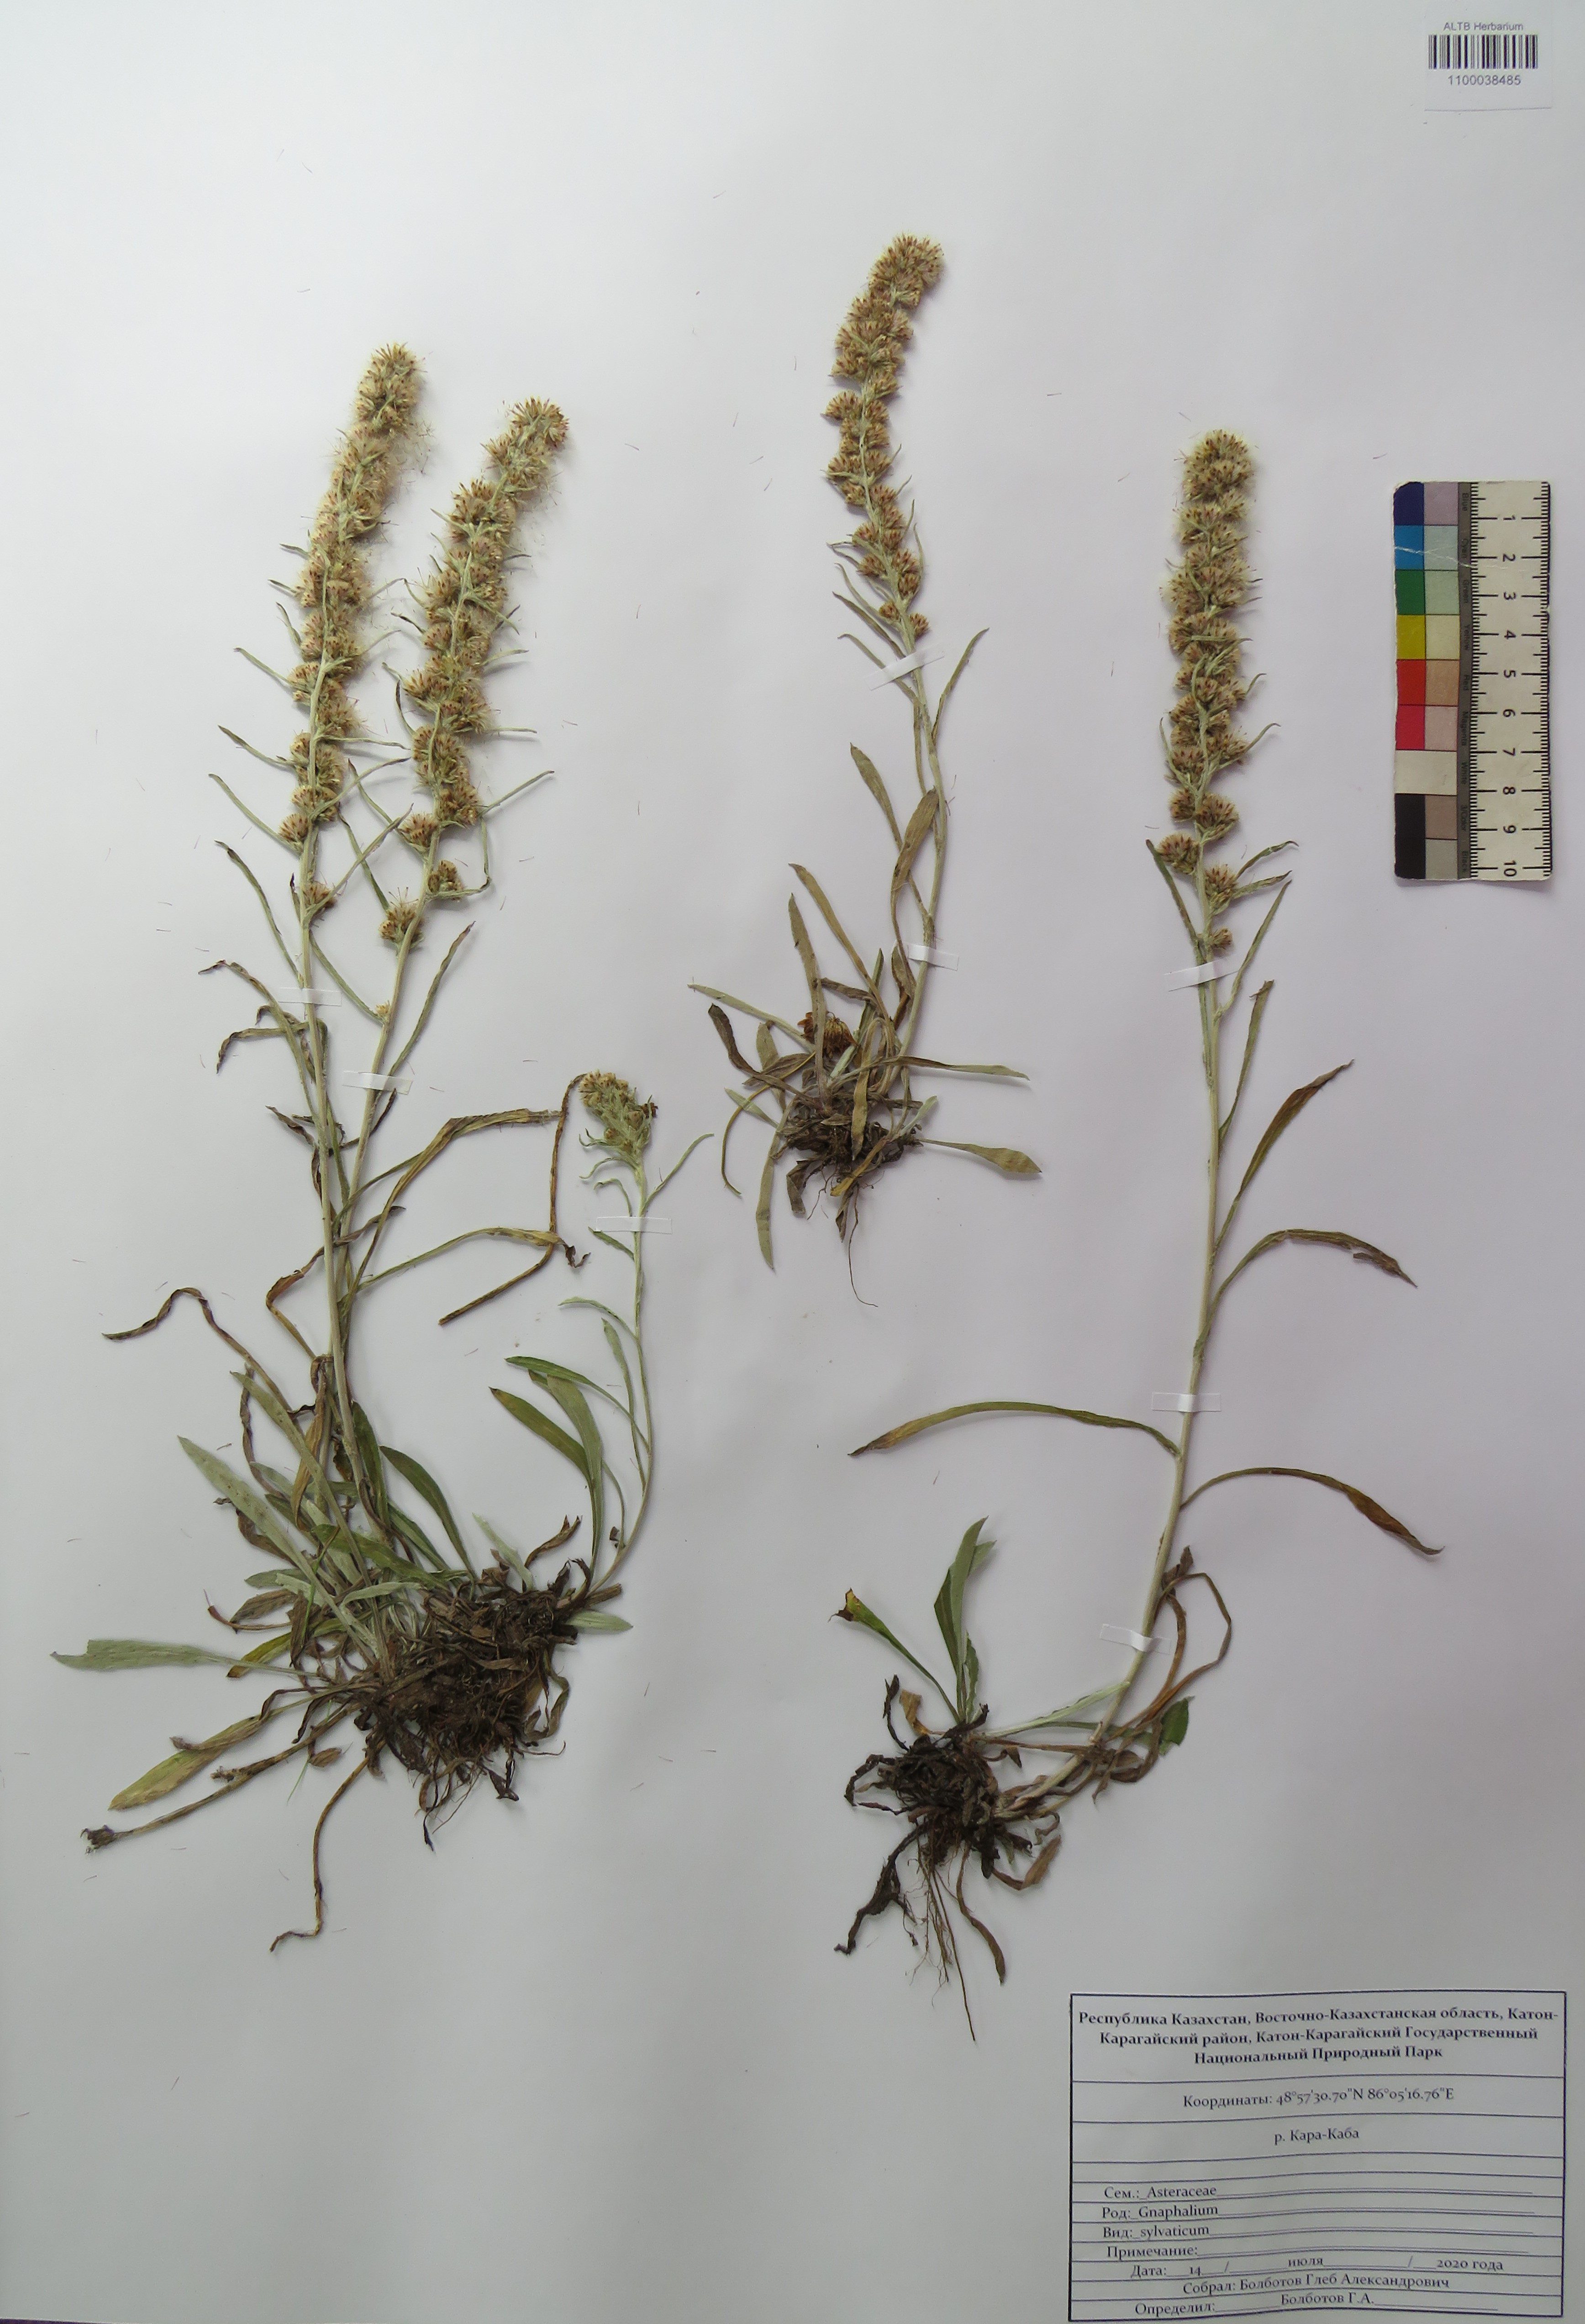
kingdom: Plantae
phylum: Tracheophyta
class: Magnoliopsida
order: Asterales
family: Asteraceae
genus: Omalotheca
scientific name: Omalotheca sylvatica
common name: Heath cudweed
